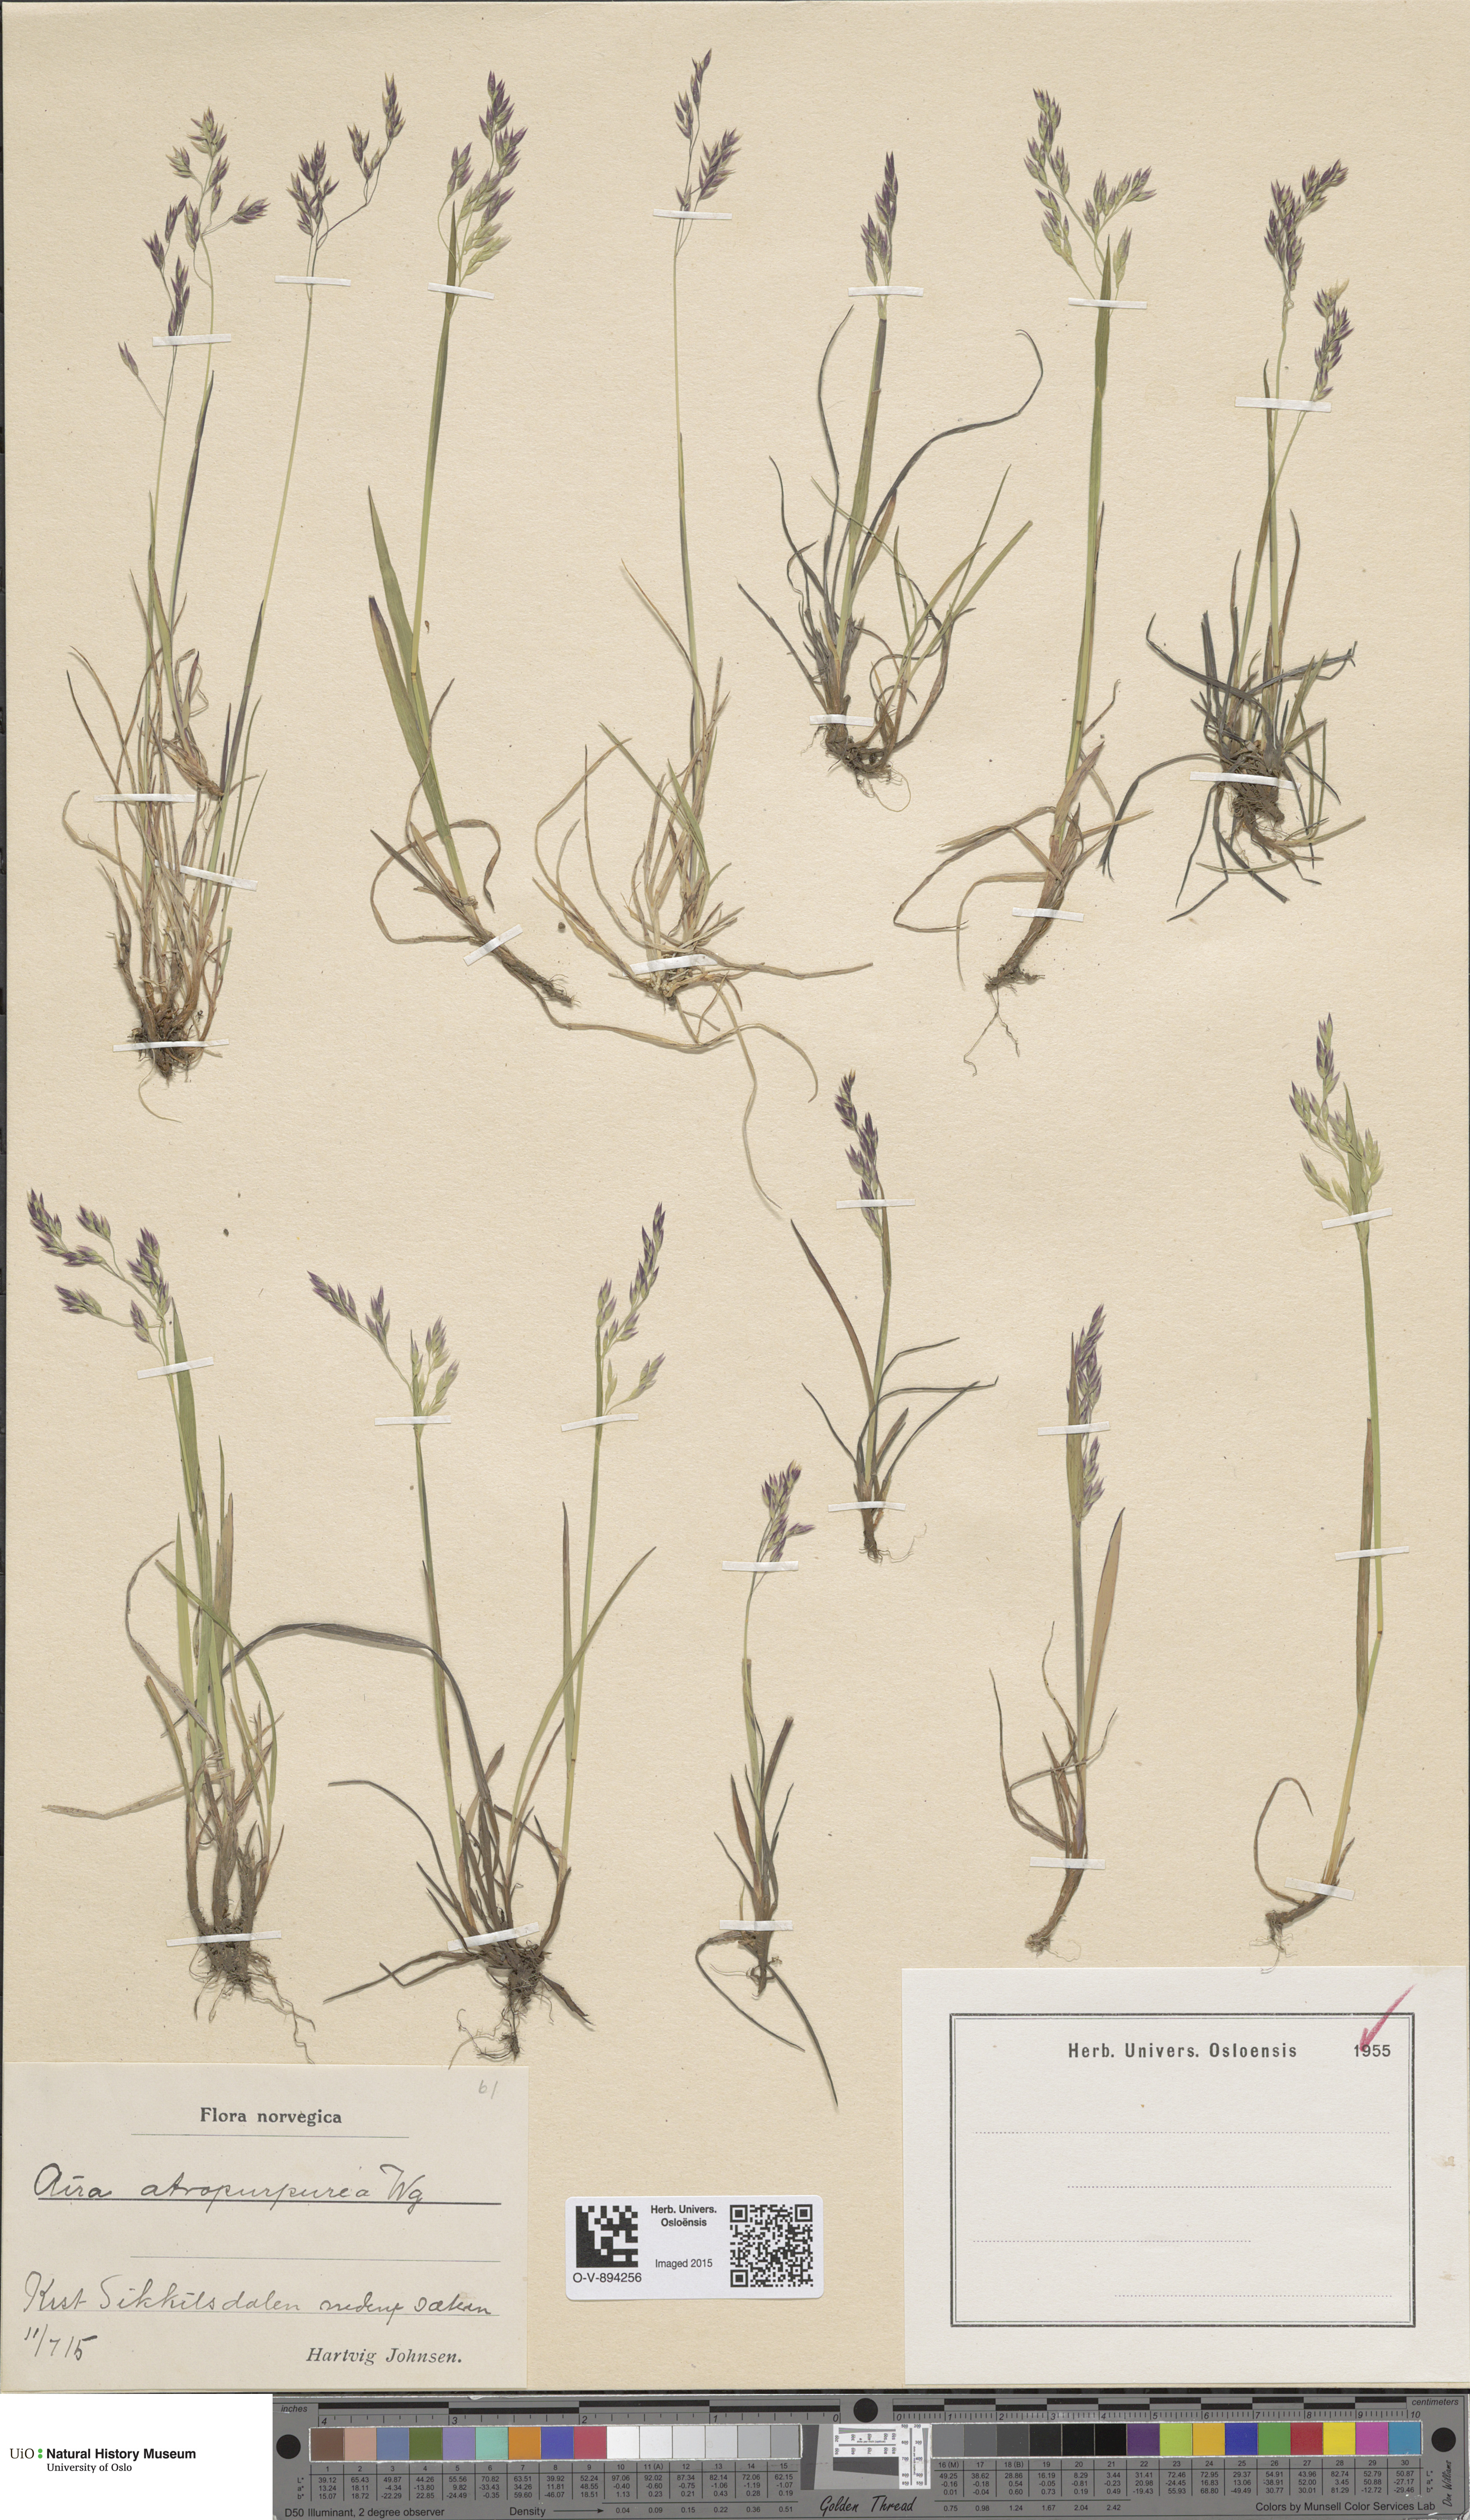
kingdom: Plantae
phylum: Tracheophyta
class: Liliopsida
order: Poales
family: Poaceae
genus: Vahlodea
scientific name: Vahlodea atropurpurea
